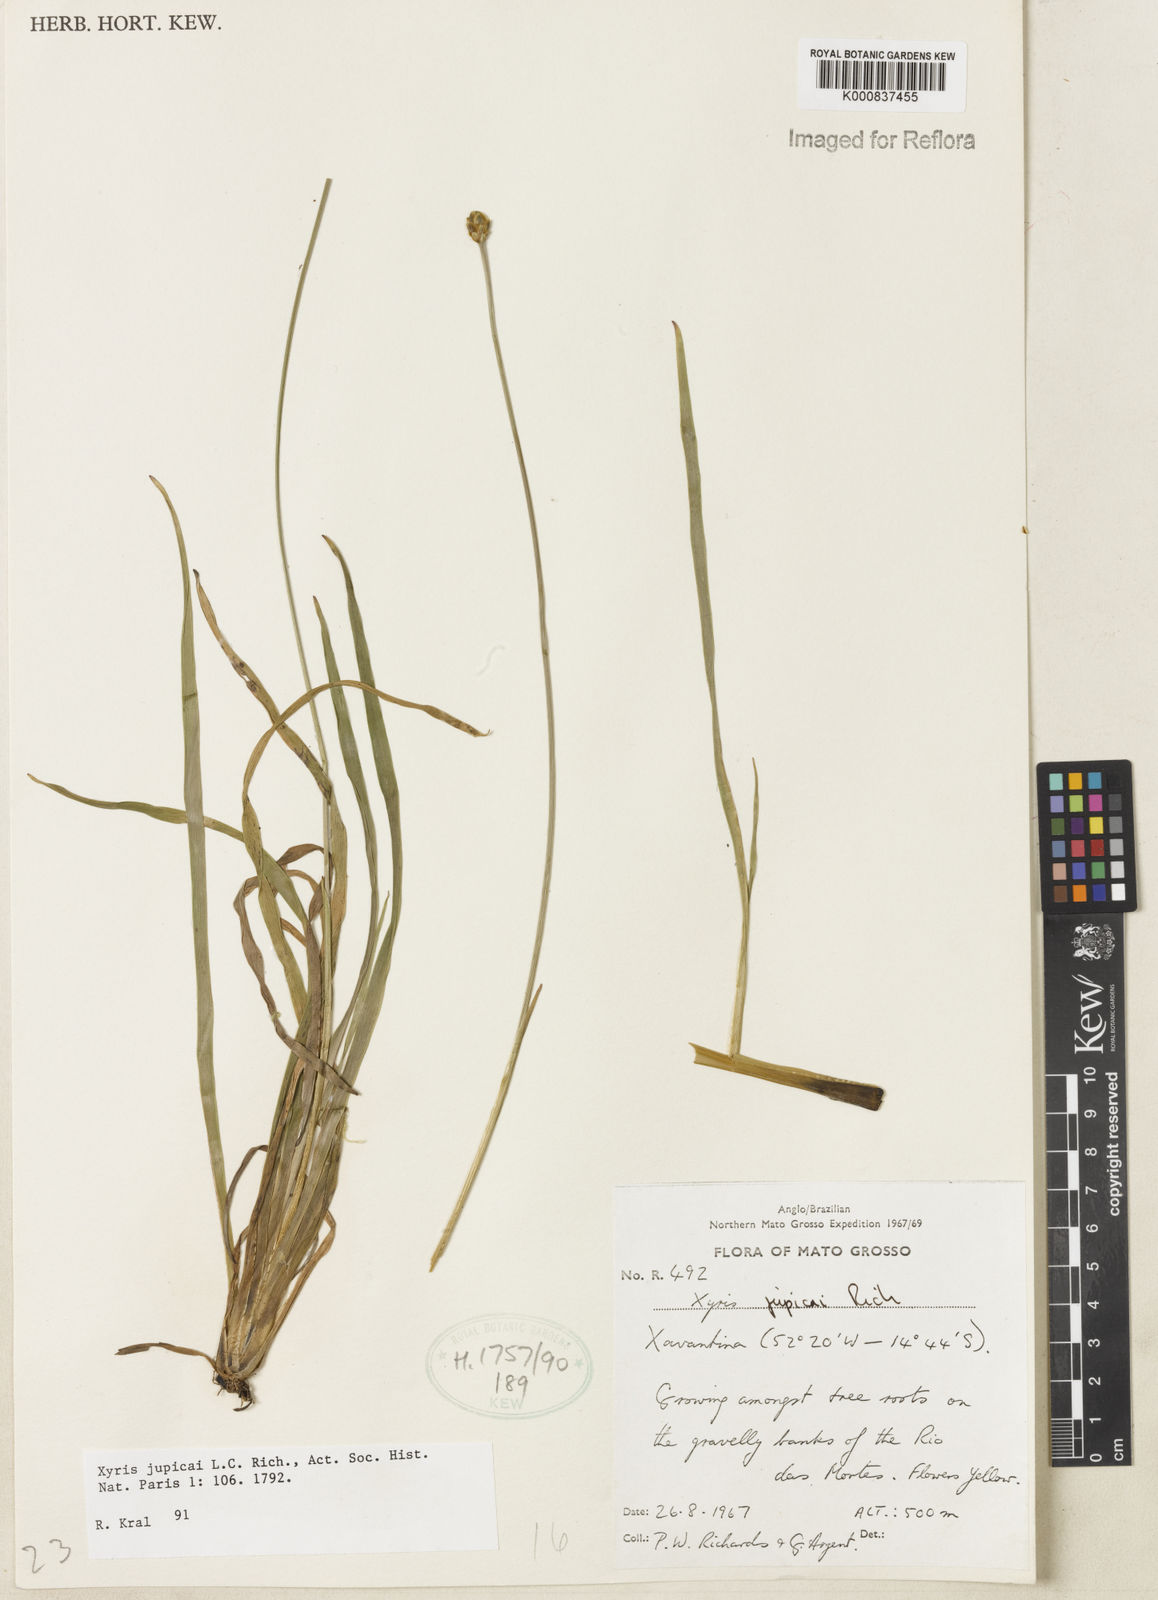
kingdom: Plantae
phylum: Tracheophyta
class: Liliopsida
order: Poales
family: Xyridaceae
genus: Xyris
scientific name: Xyris jupicai
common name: Richard's yelloweyed grass
